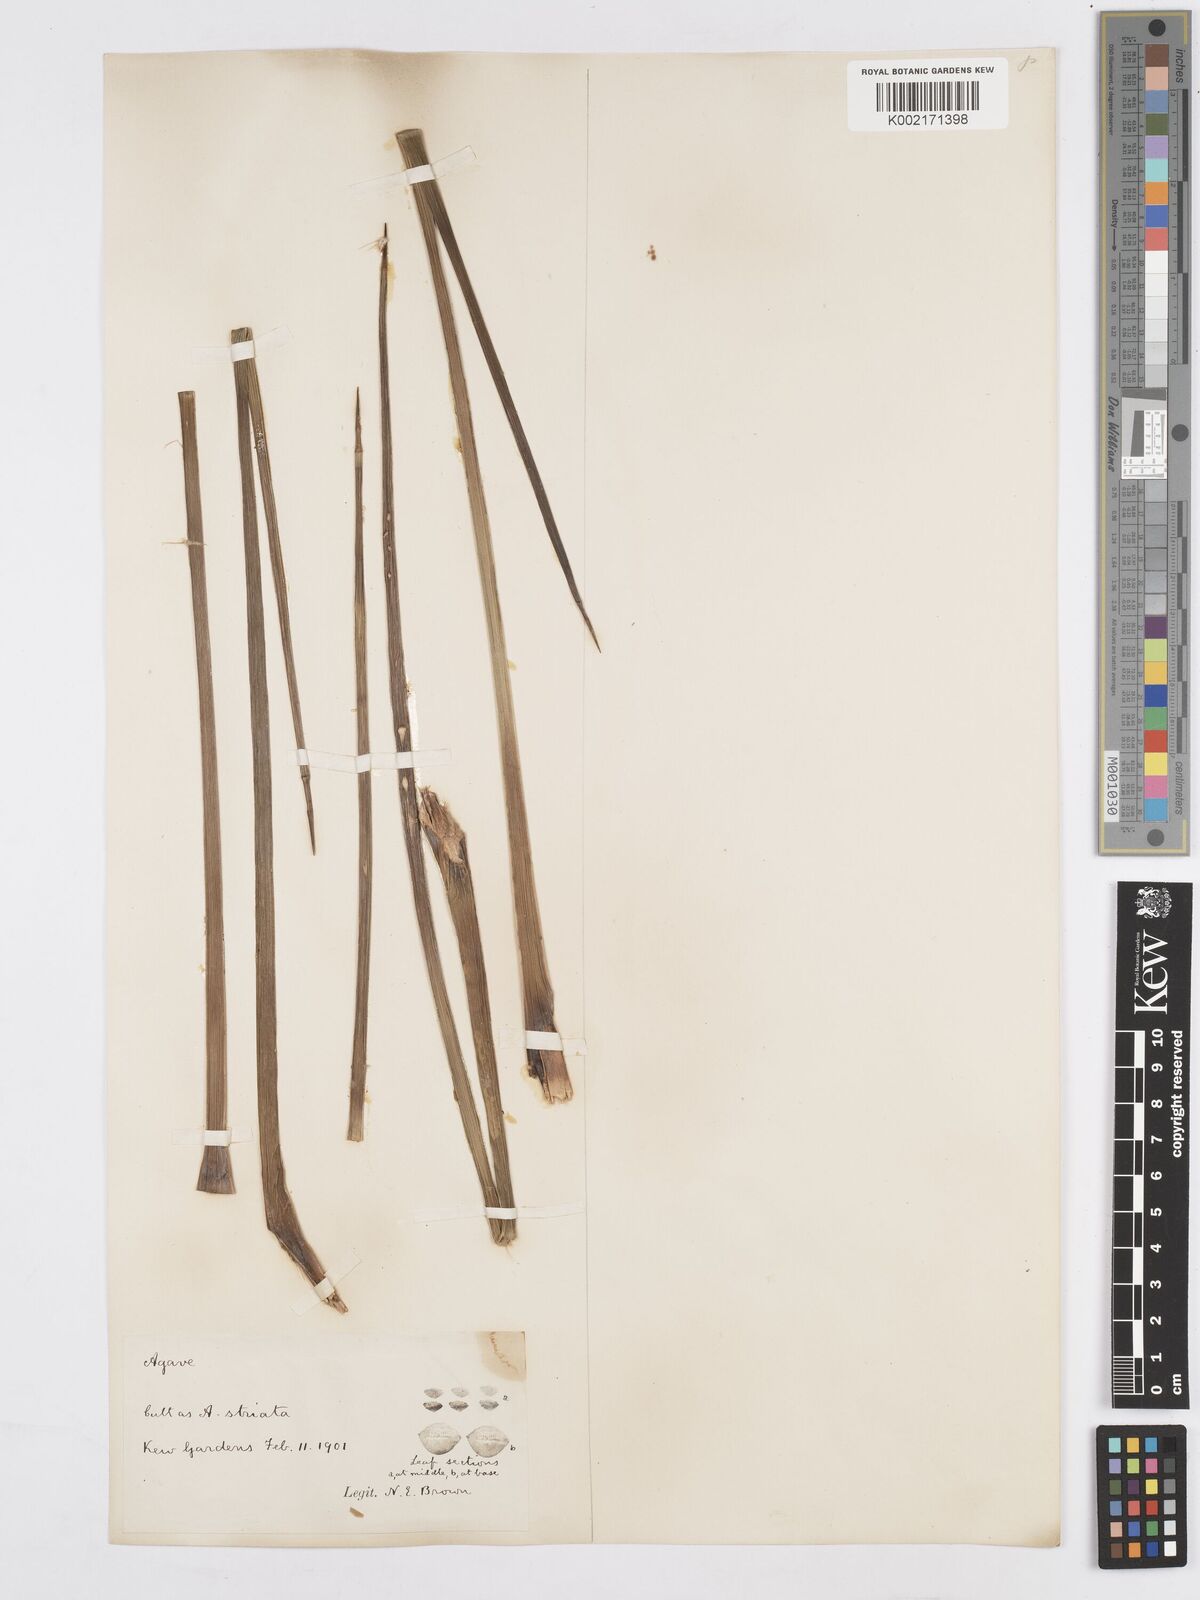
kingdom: Plantae
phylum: Tracheophyta
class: Liliopsida
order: Asparagales
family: Asparagaceae
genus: Agave
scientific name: Agave striata
